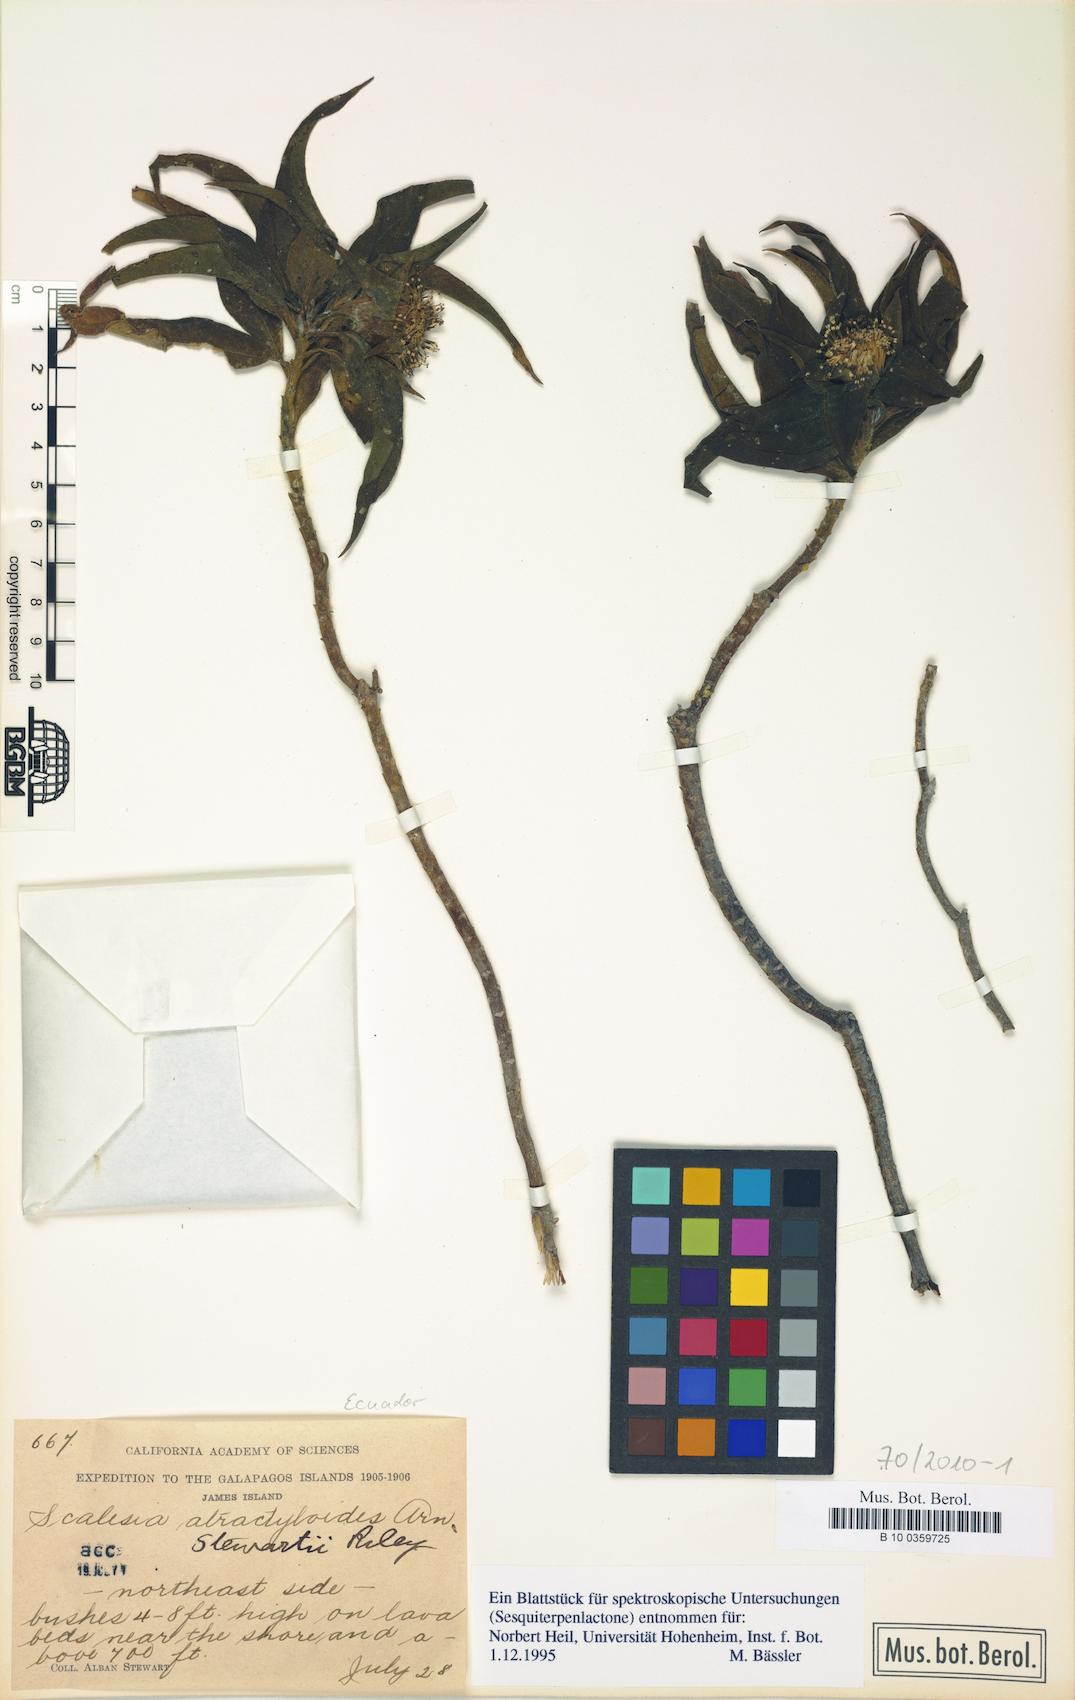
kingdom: Plantae
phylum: Tracheophyta
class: Magnoliopsida
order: Asterales
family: Asteraceae
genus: Scalesia
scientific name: Scalesia stewartii
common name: Stewart's scalesia
